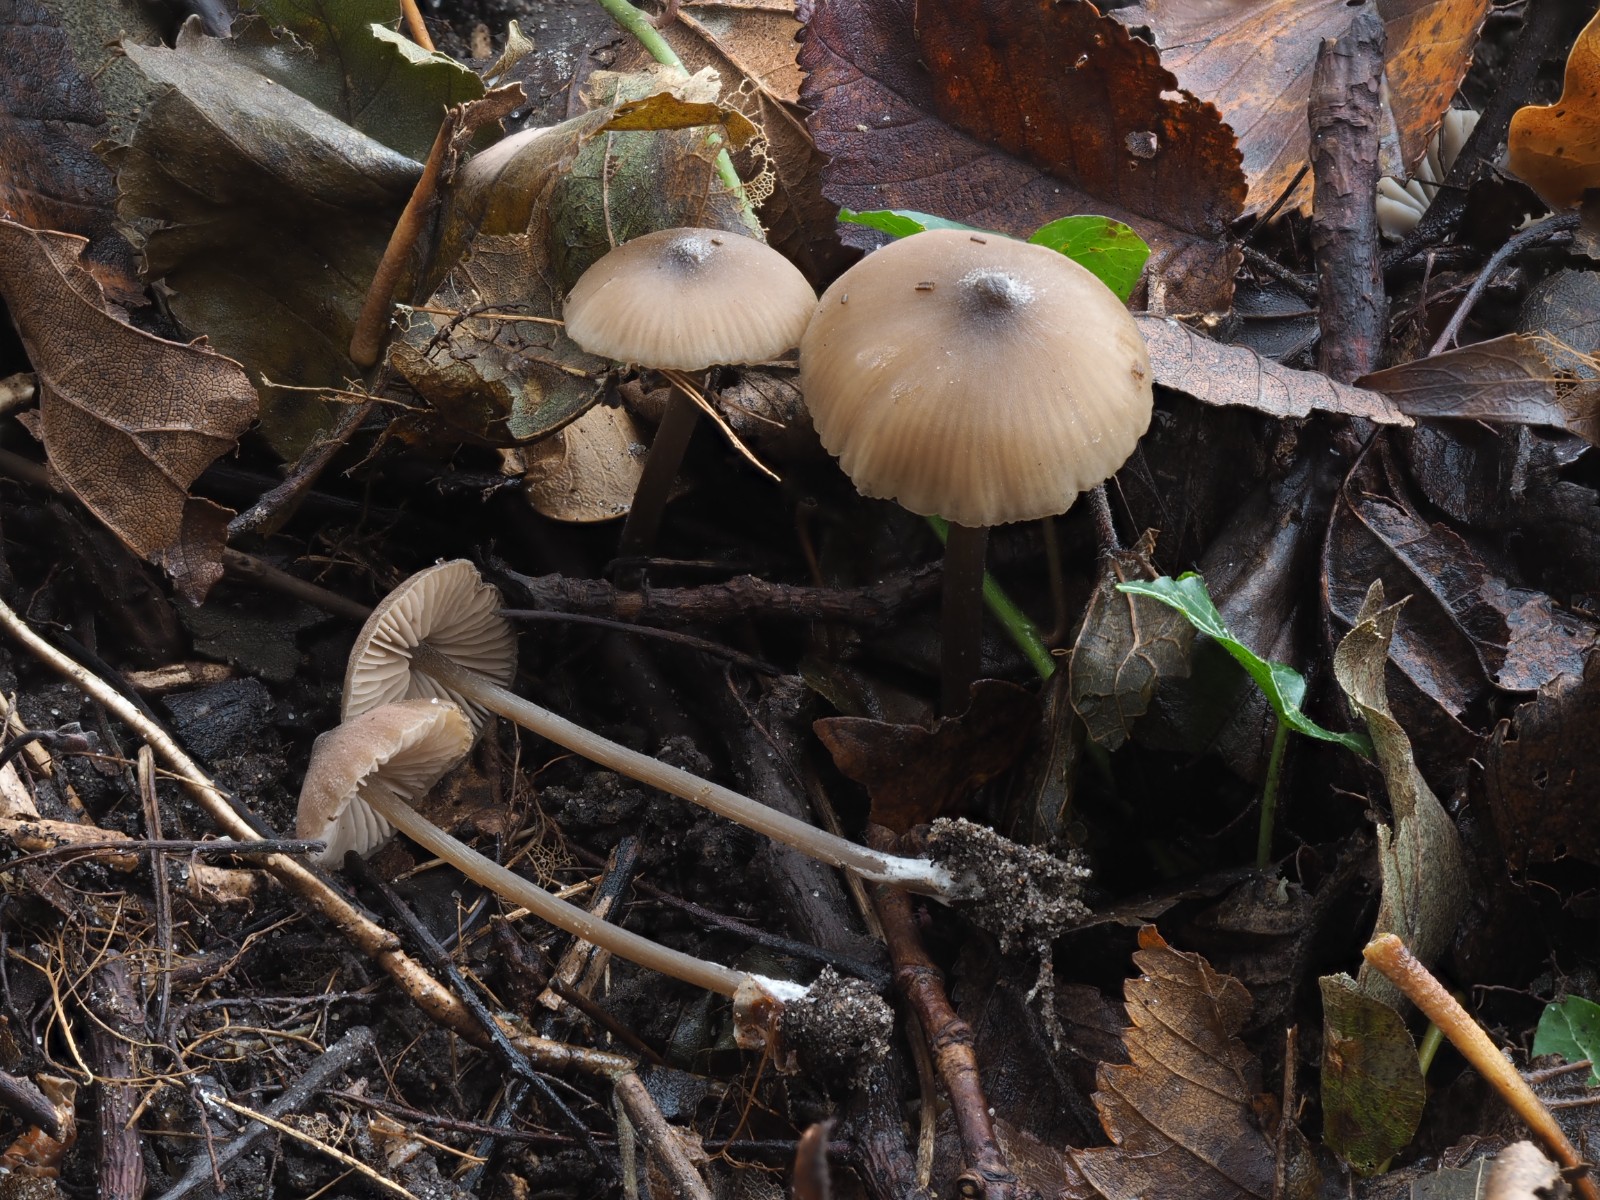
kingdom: Fungi
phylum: Basidiomycota
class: Agaricomycetes
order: Agaricales
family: Entolomataceae
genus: Entoloma
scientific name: Entoloma
